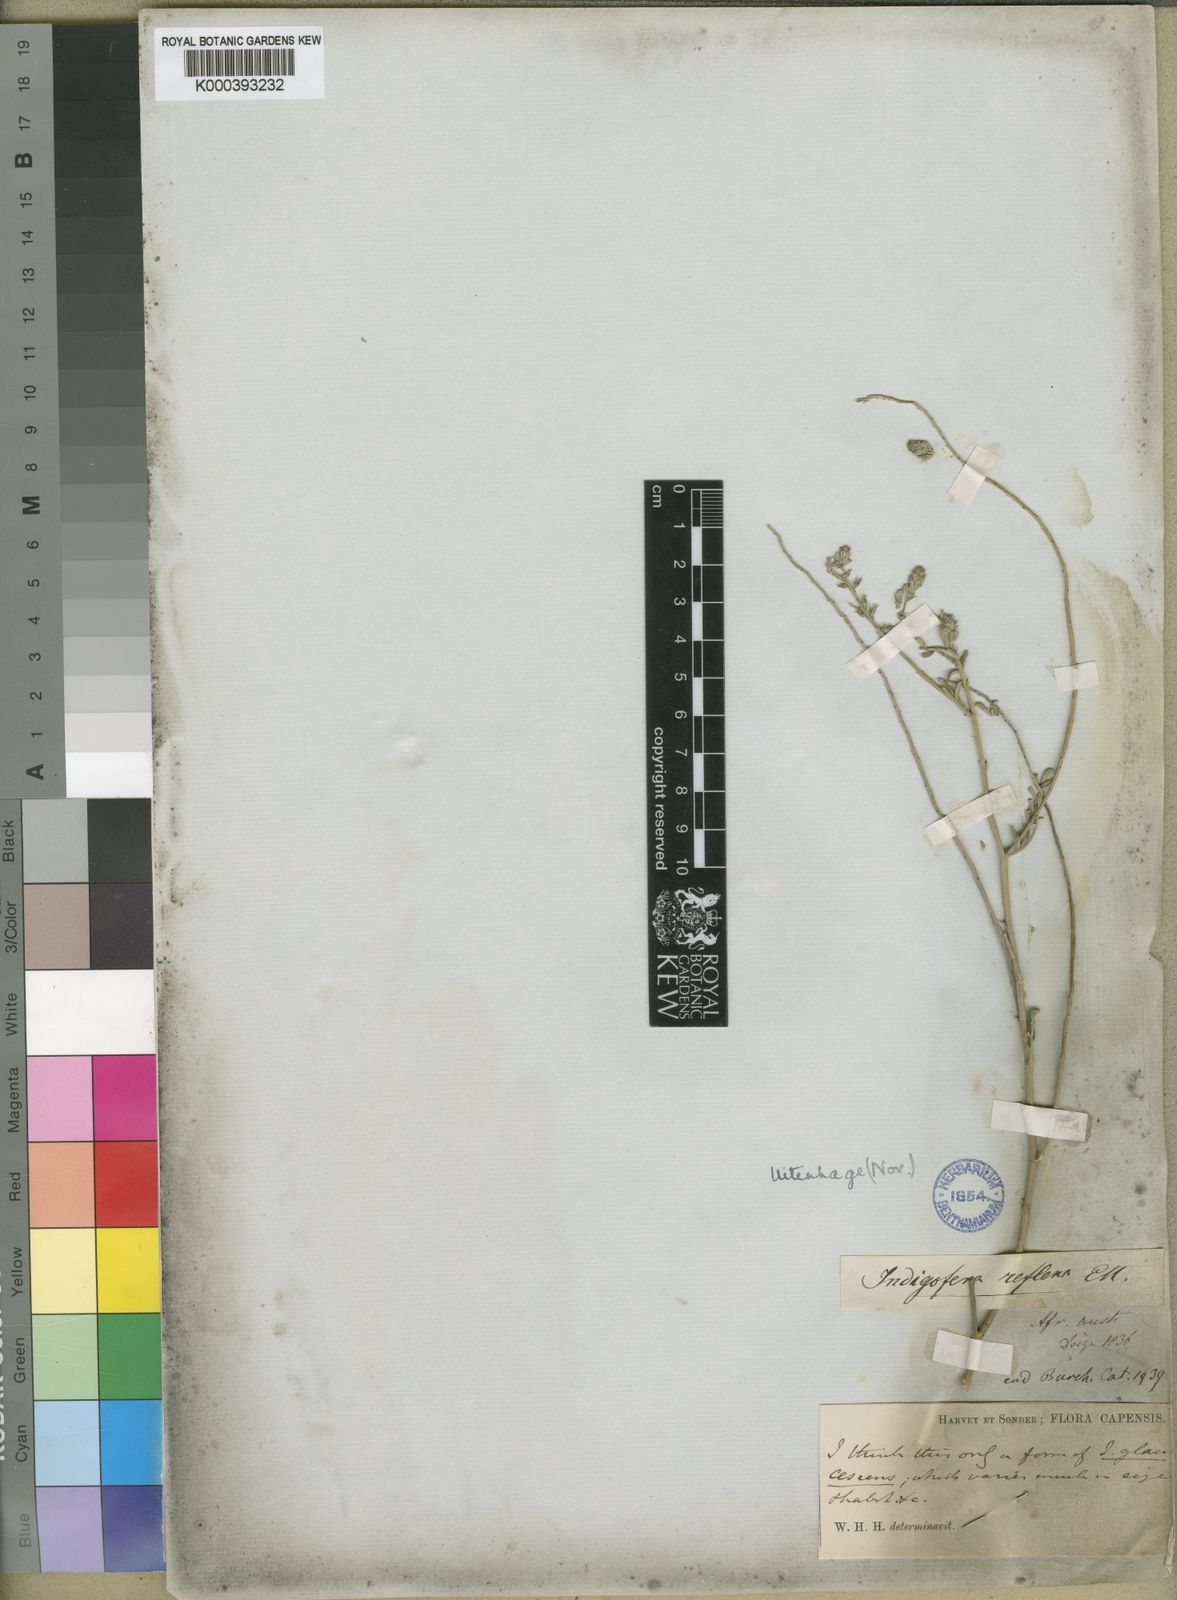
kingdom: Plantae
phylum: Tracheophyta
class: Magnoliopsida
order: Fabales
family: Fabaceae
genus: Indigofera
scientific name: Indigofera glaucescens
